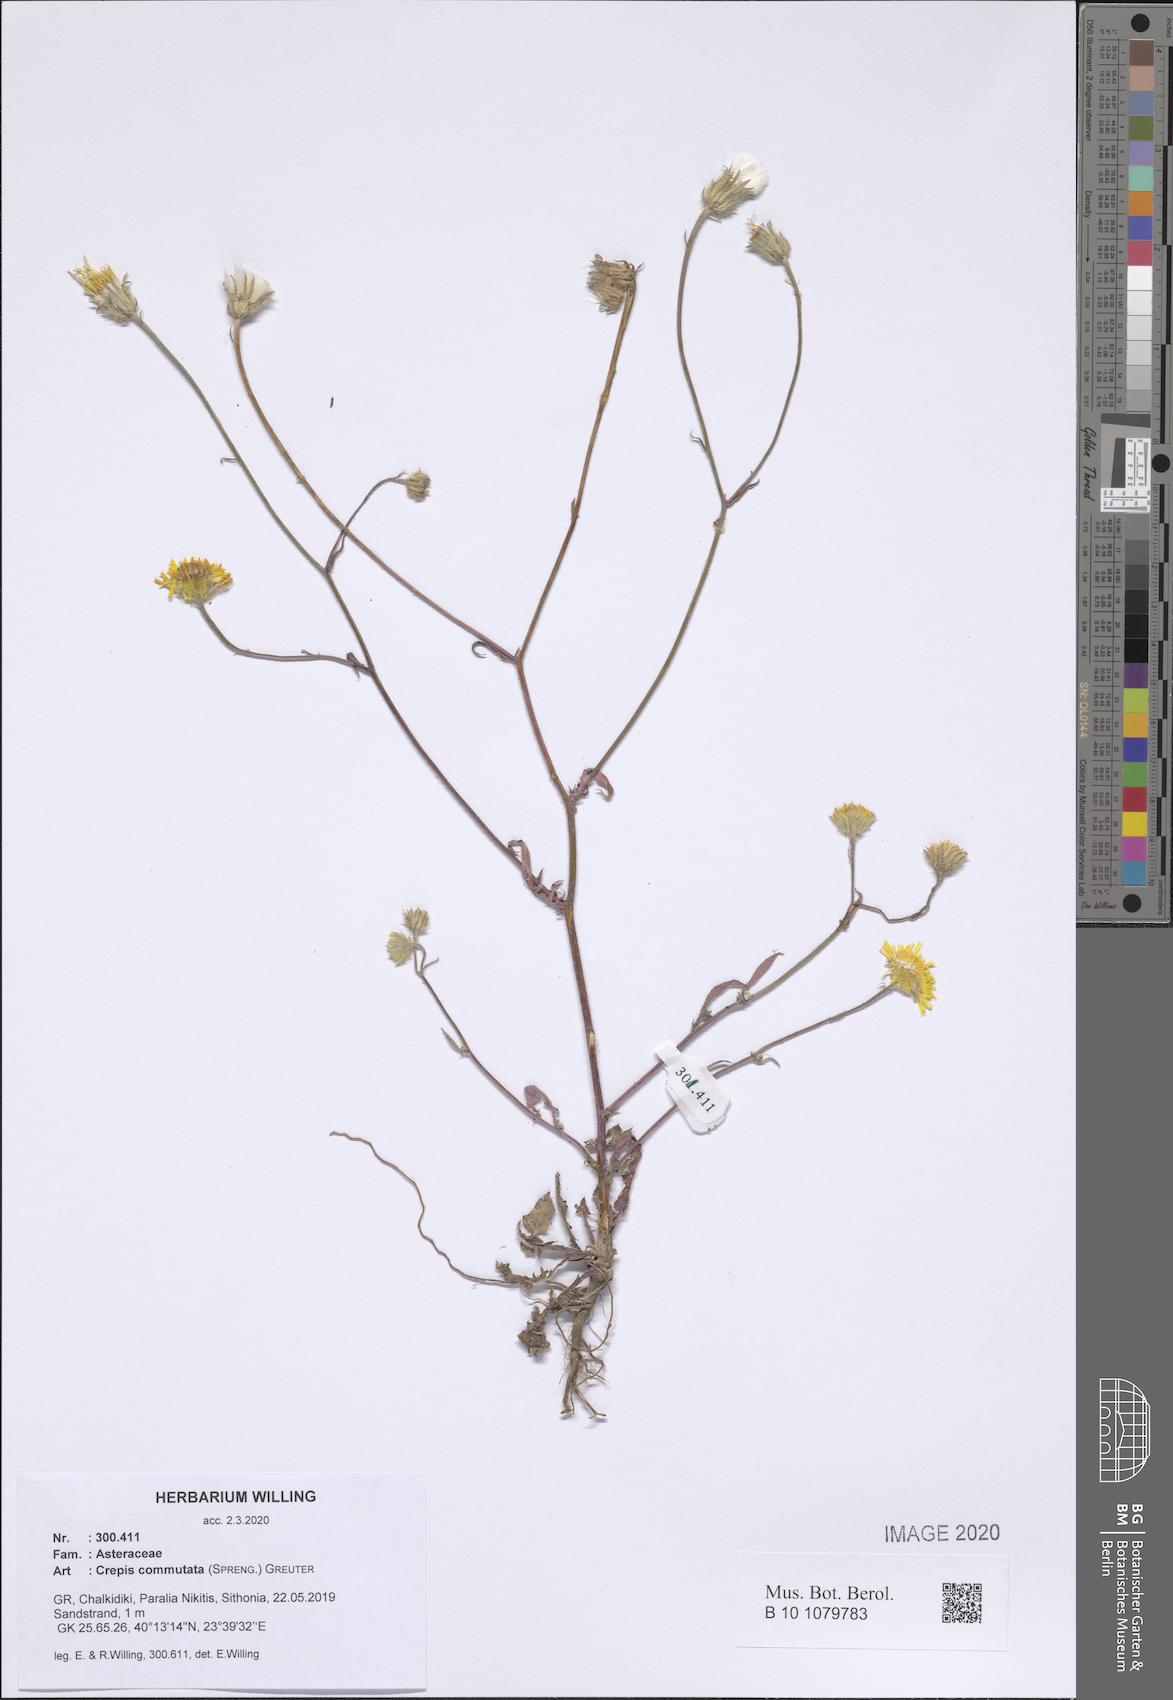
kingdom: Plantae
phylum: Tracheophyta
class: Magnoliopsida
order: Asterales
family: Asteraceae
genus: Crepis
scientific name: Crepis commutata
